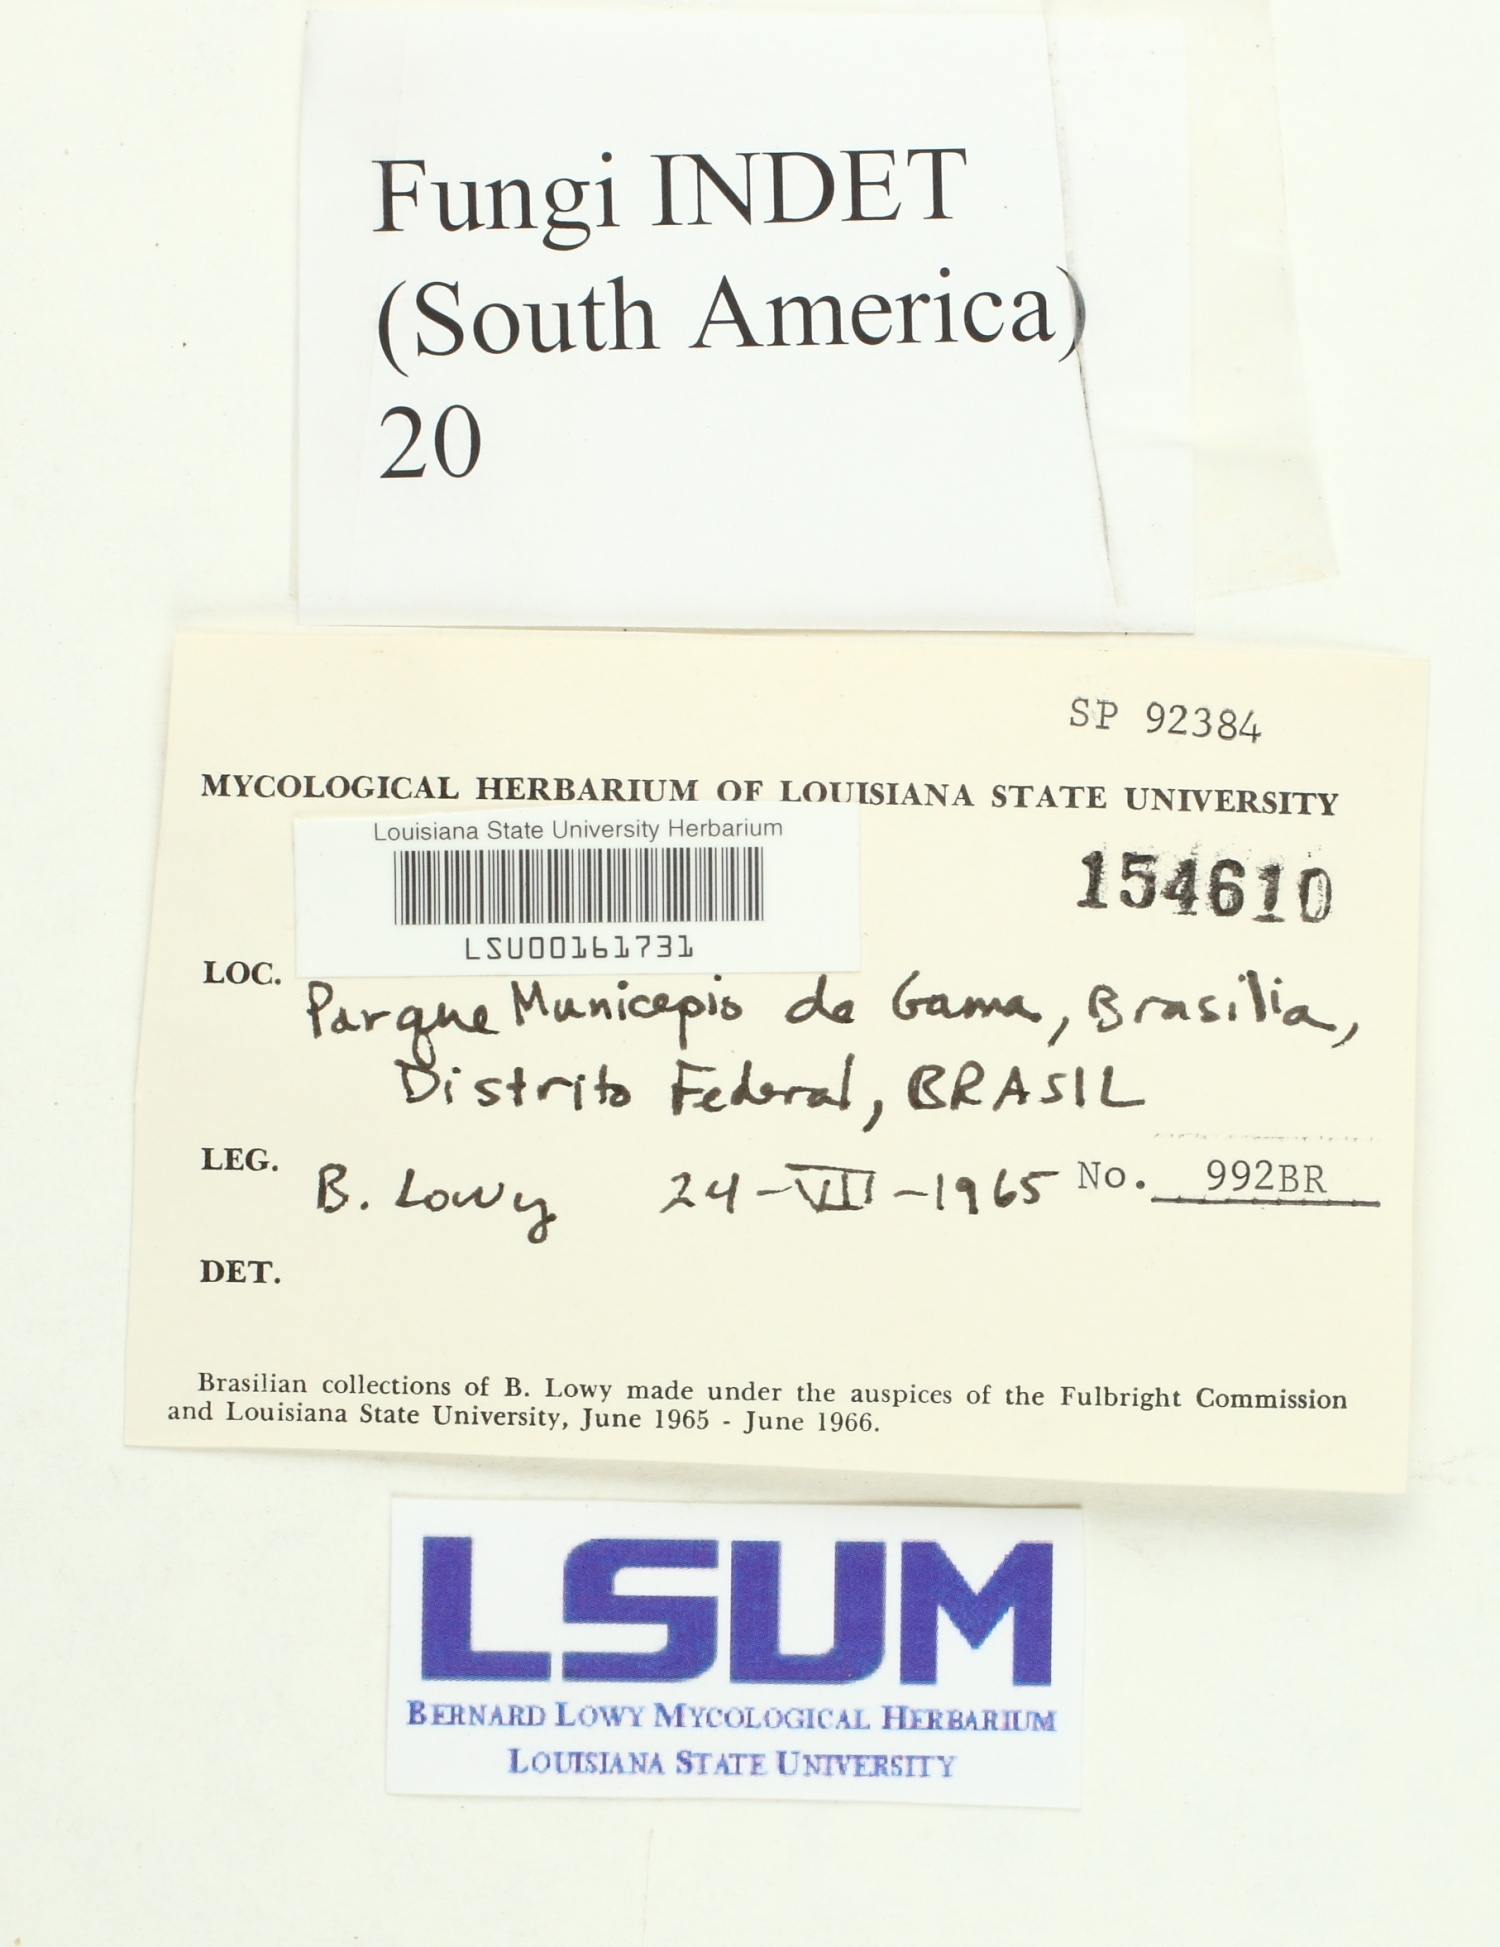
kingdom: Fungi
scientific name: Fungi
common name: Fungi
